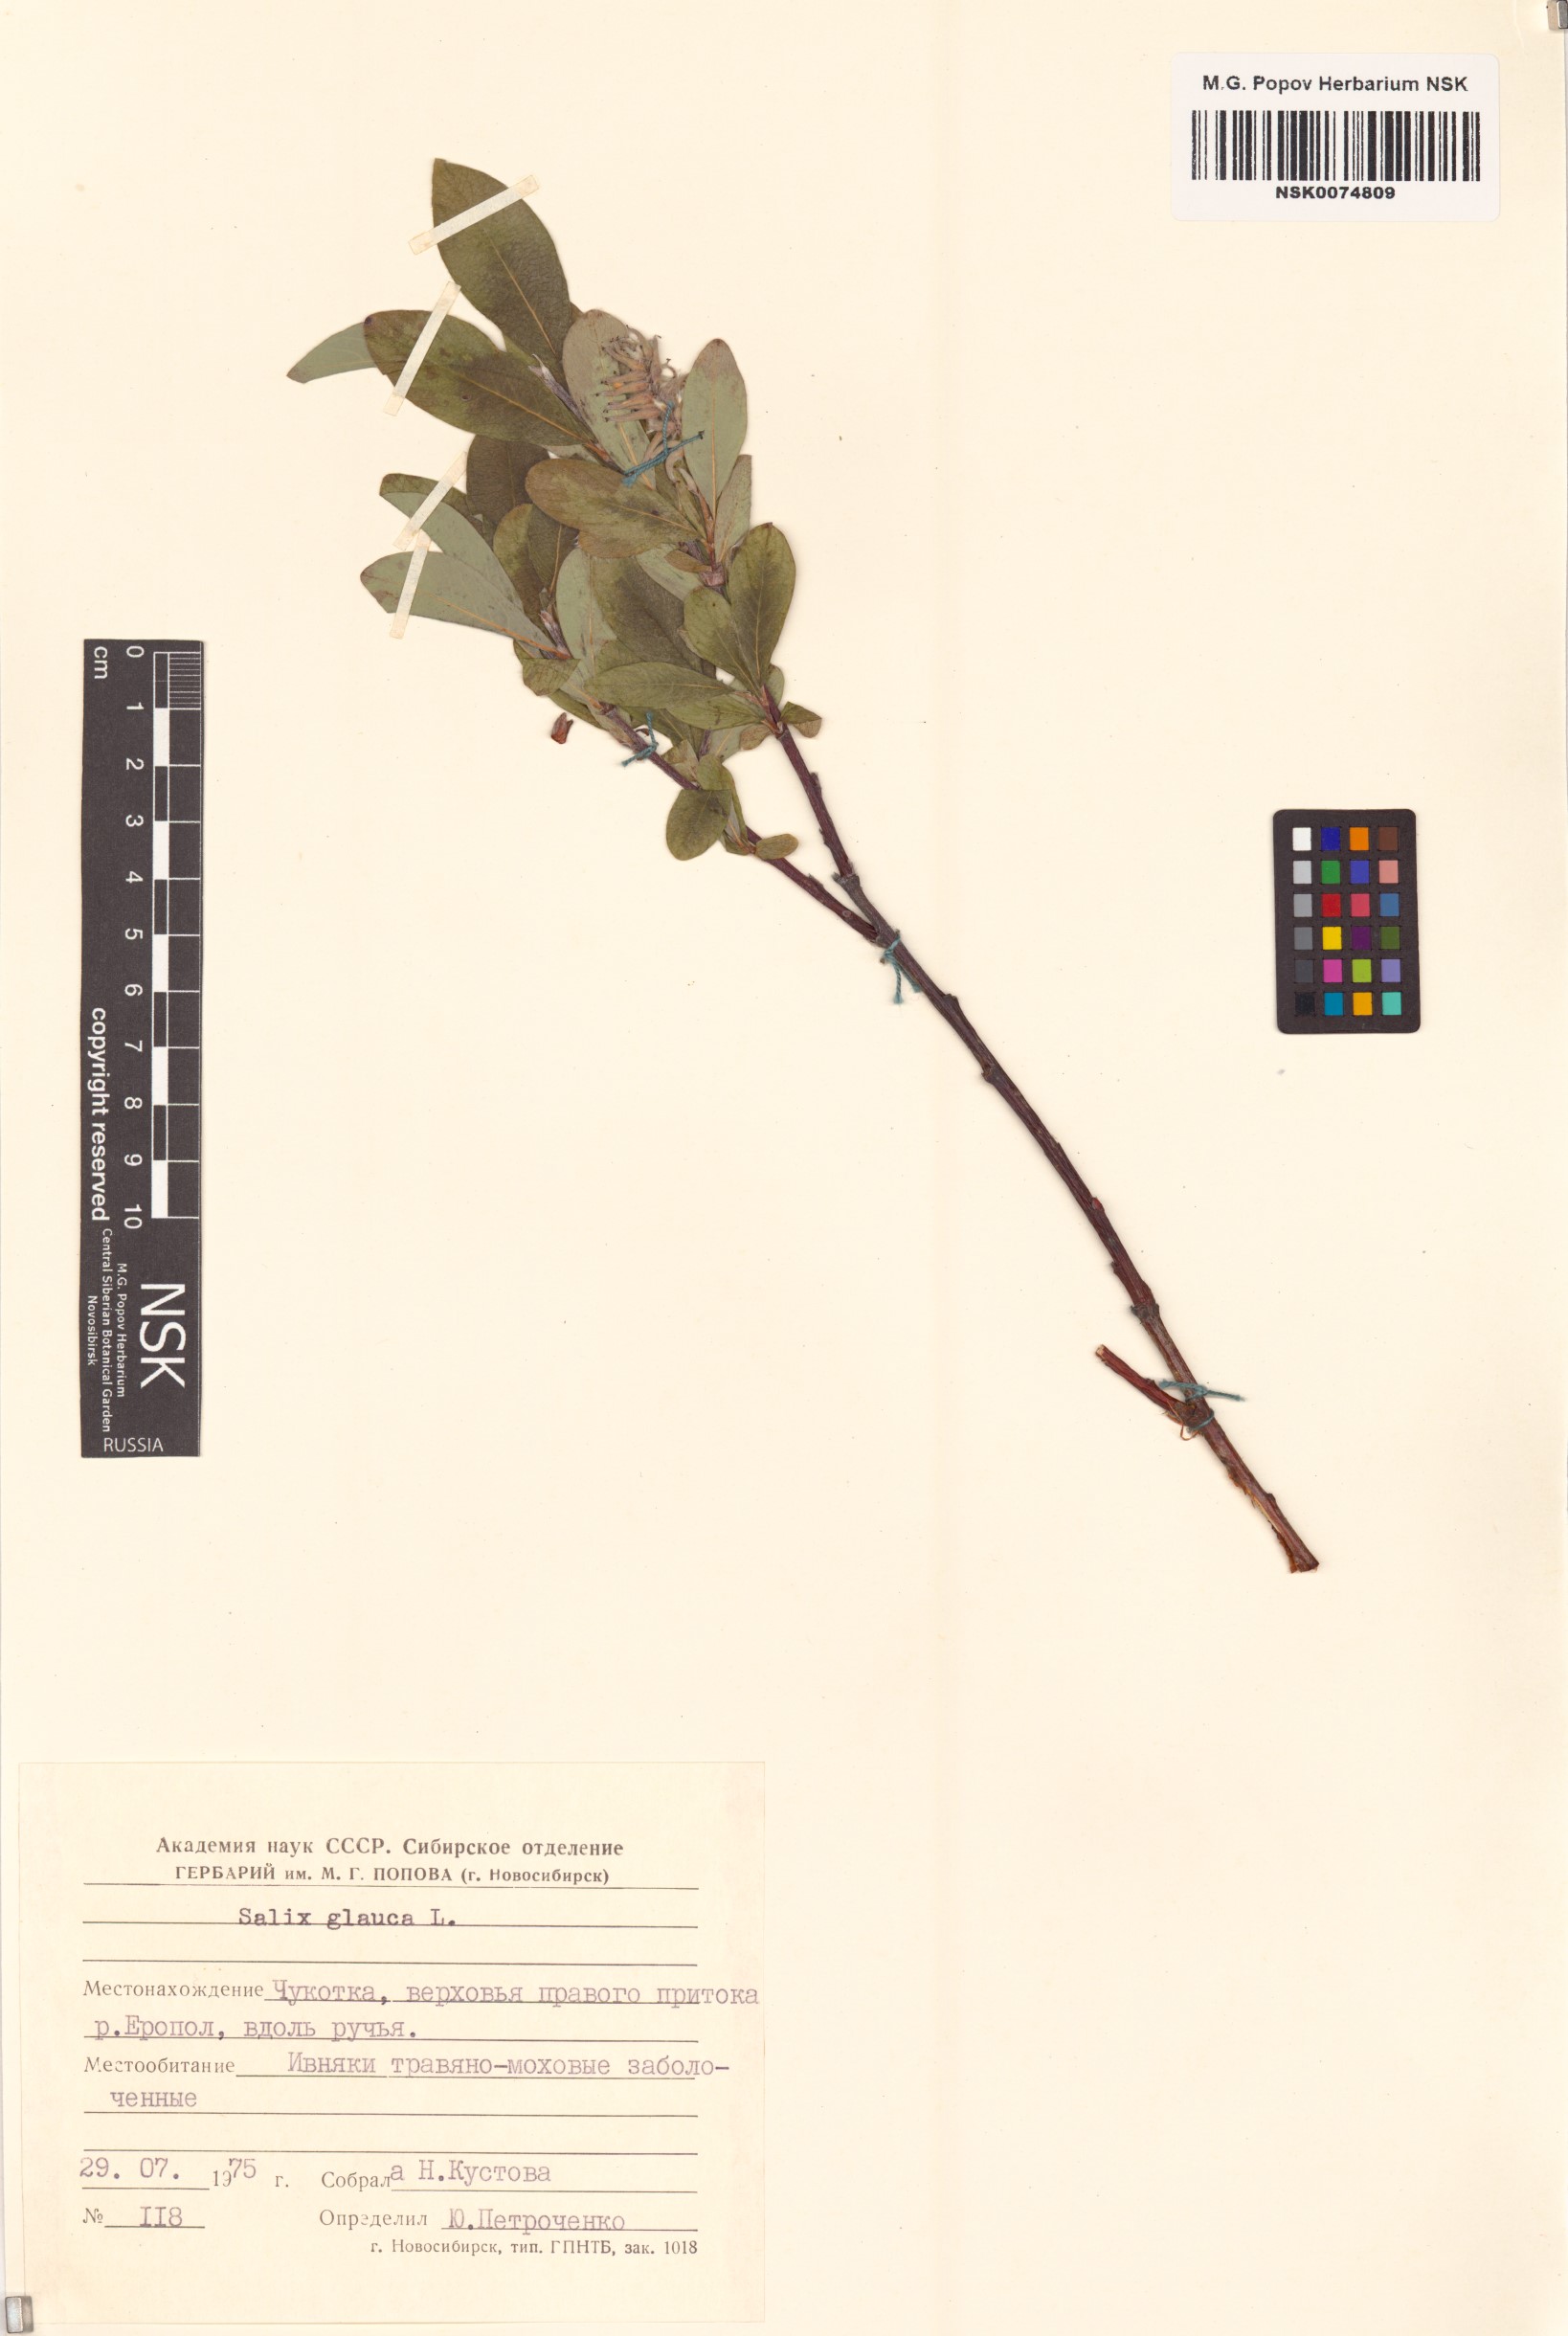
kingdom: Plantae
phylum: Tracheophyta
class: Magnoliopsida
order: Malpighiales
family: Salicaceae
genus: Salix
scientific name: Salix glauca
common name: Glaucous willow
